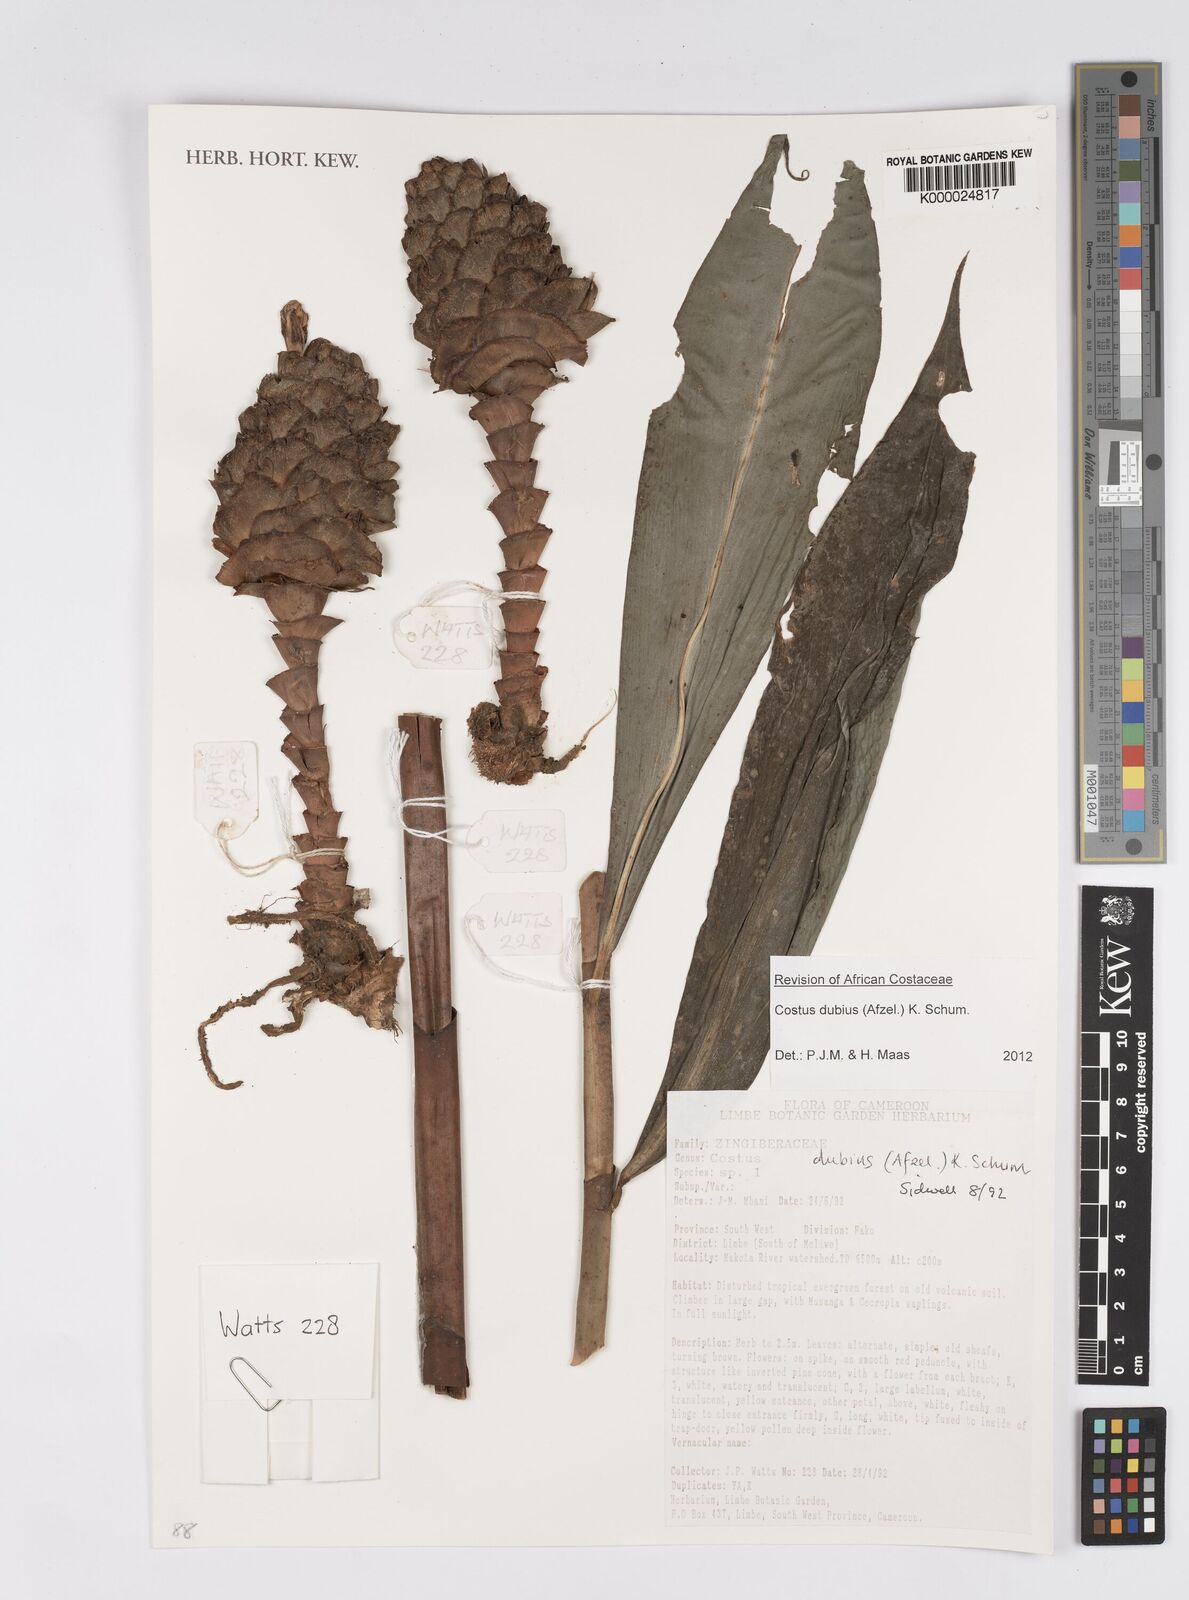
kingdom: Plantae
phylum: Tracheophyta
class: Liliopsida
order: Zingiberales
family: Costaceae
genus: Costus
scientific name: Costus dubius
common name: Costus
